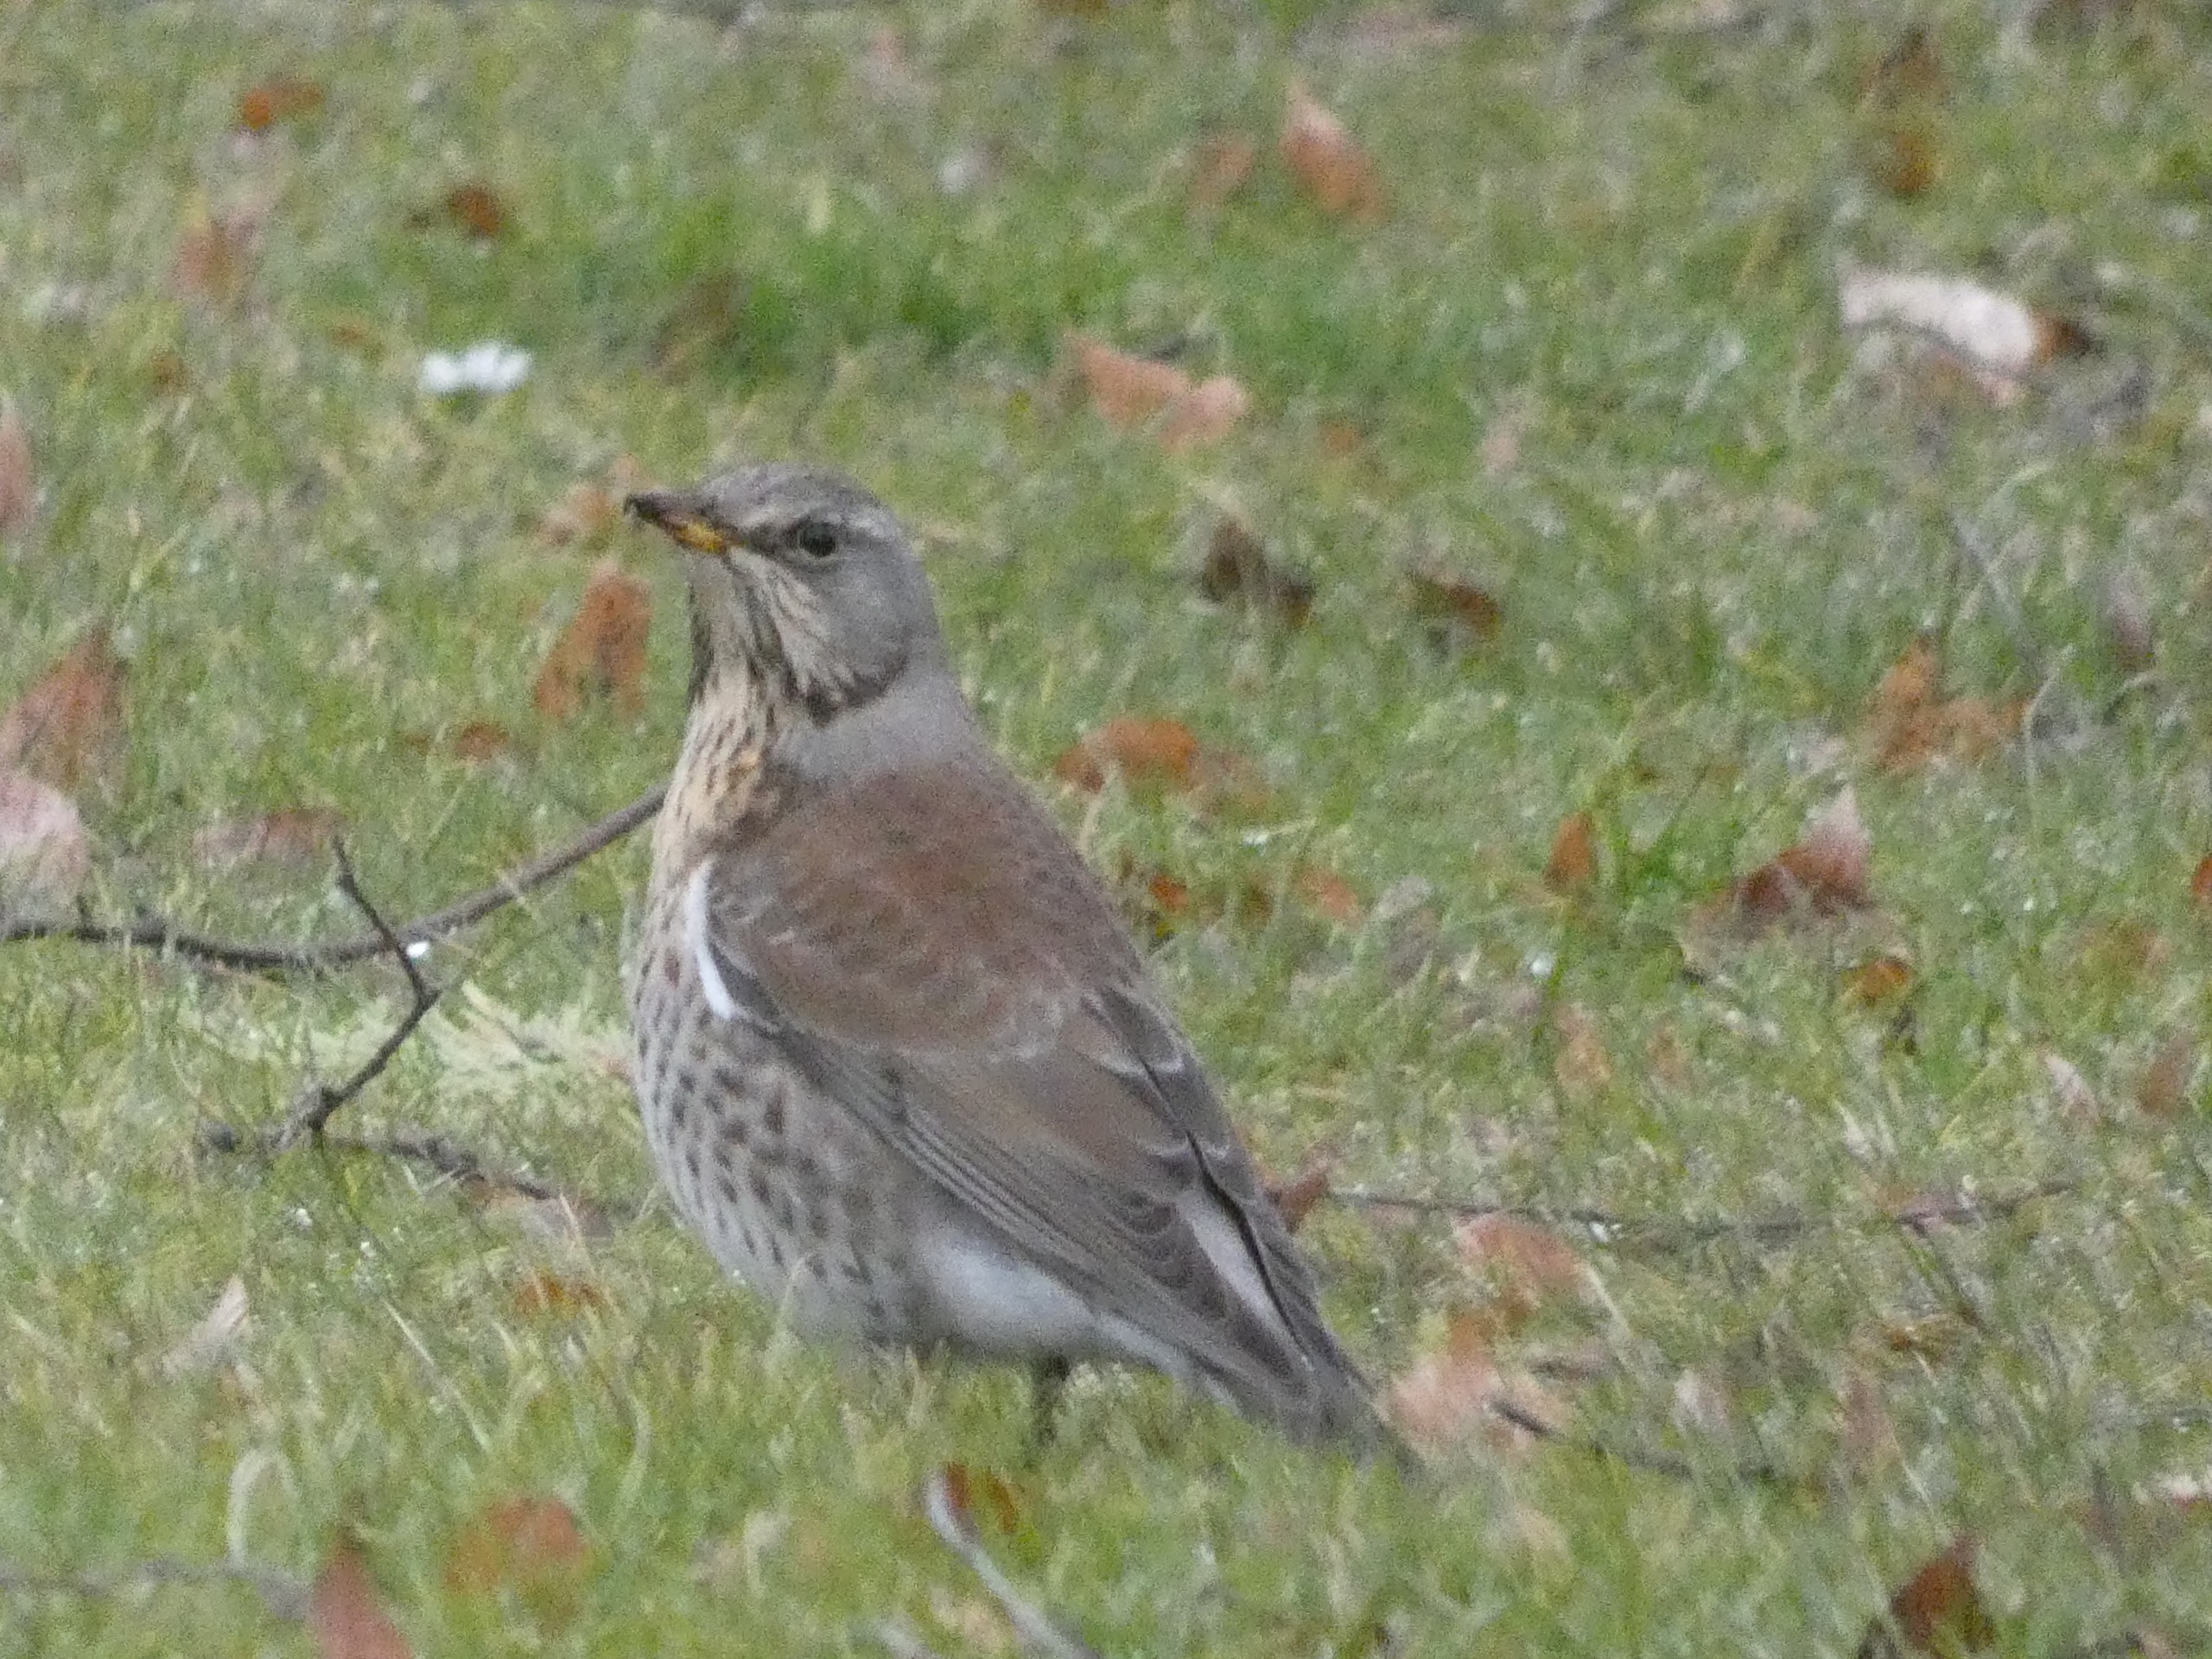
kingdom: Animalia
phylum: Chordata
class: Aves
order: Passeriformes
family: Turdidae
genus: Turdus
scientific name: Turdus pilaris
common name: Sjagger
